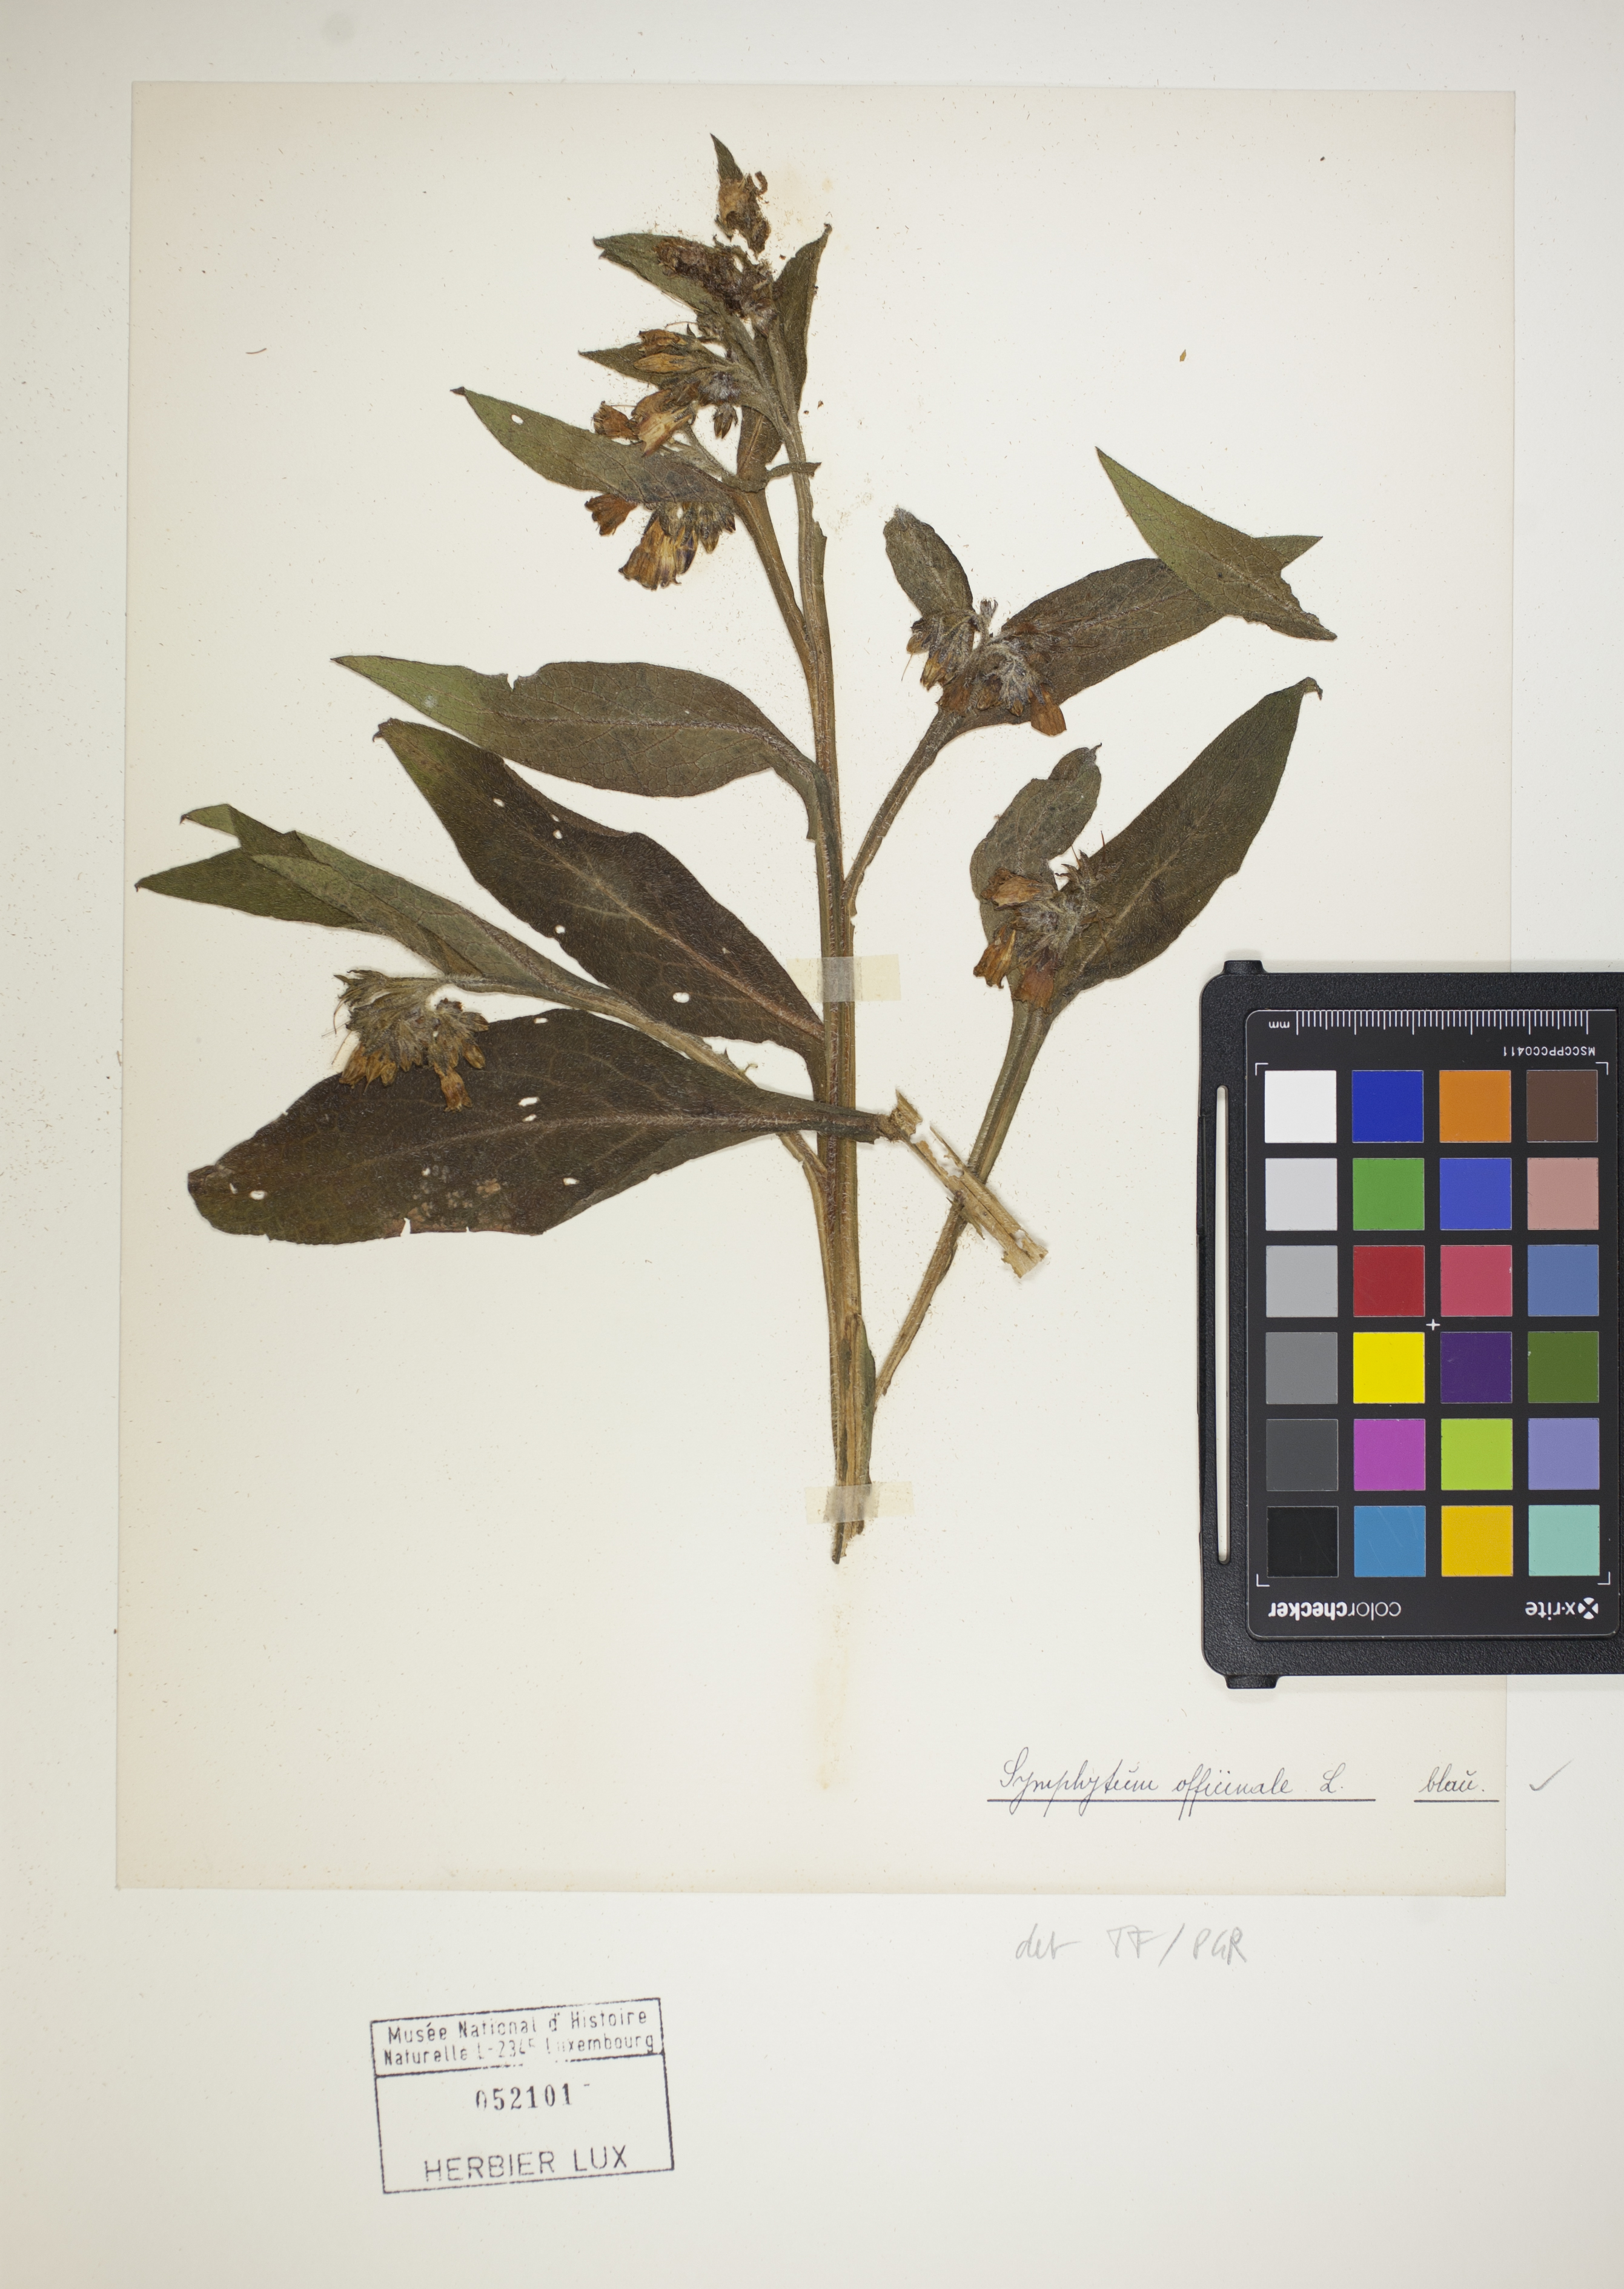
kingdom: Plantae
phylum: Tracheophyta
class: Magnoliopsida
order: Boraginales
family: Boraginaceae
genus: Symphytum
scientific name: Symphytum officinale
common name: Common comfrey
